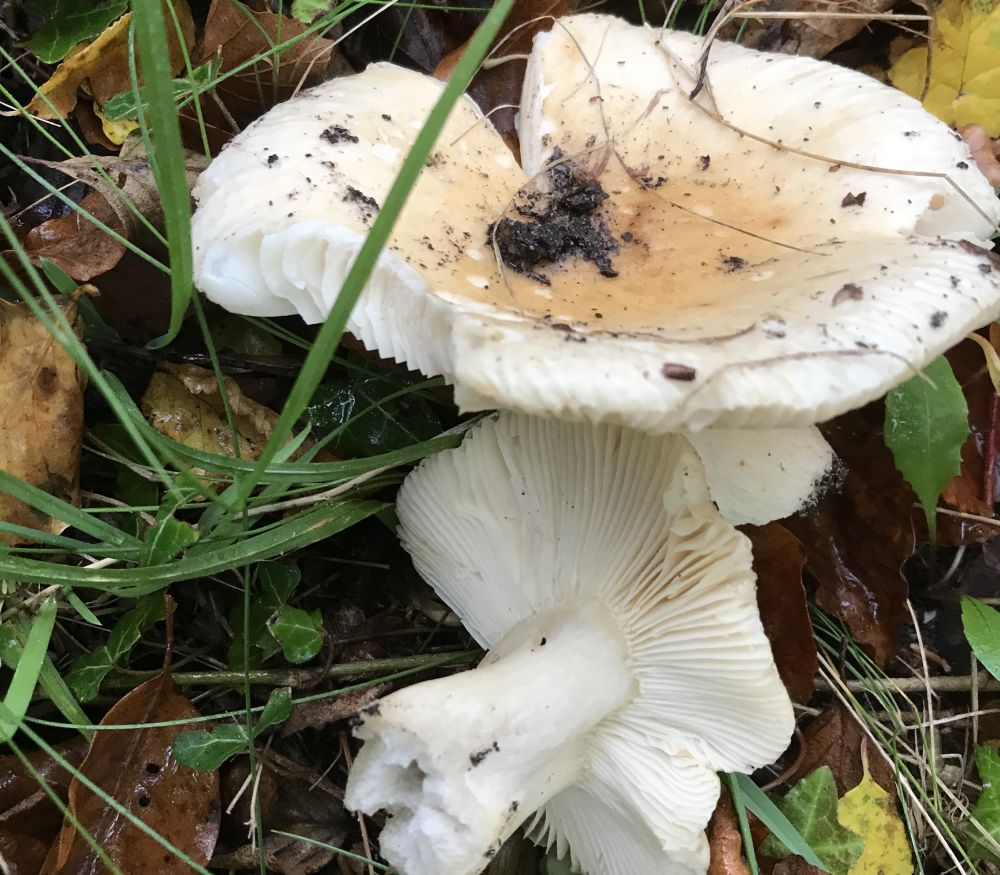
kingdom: Fungi
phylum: Basidiomycota
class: Agaricomycetes
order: Russulales
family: Russulaceae
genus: Russula
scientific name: Russula fellea
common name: galde-skørhat
